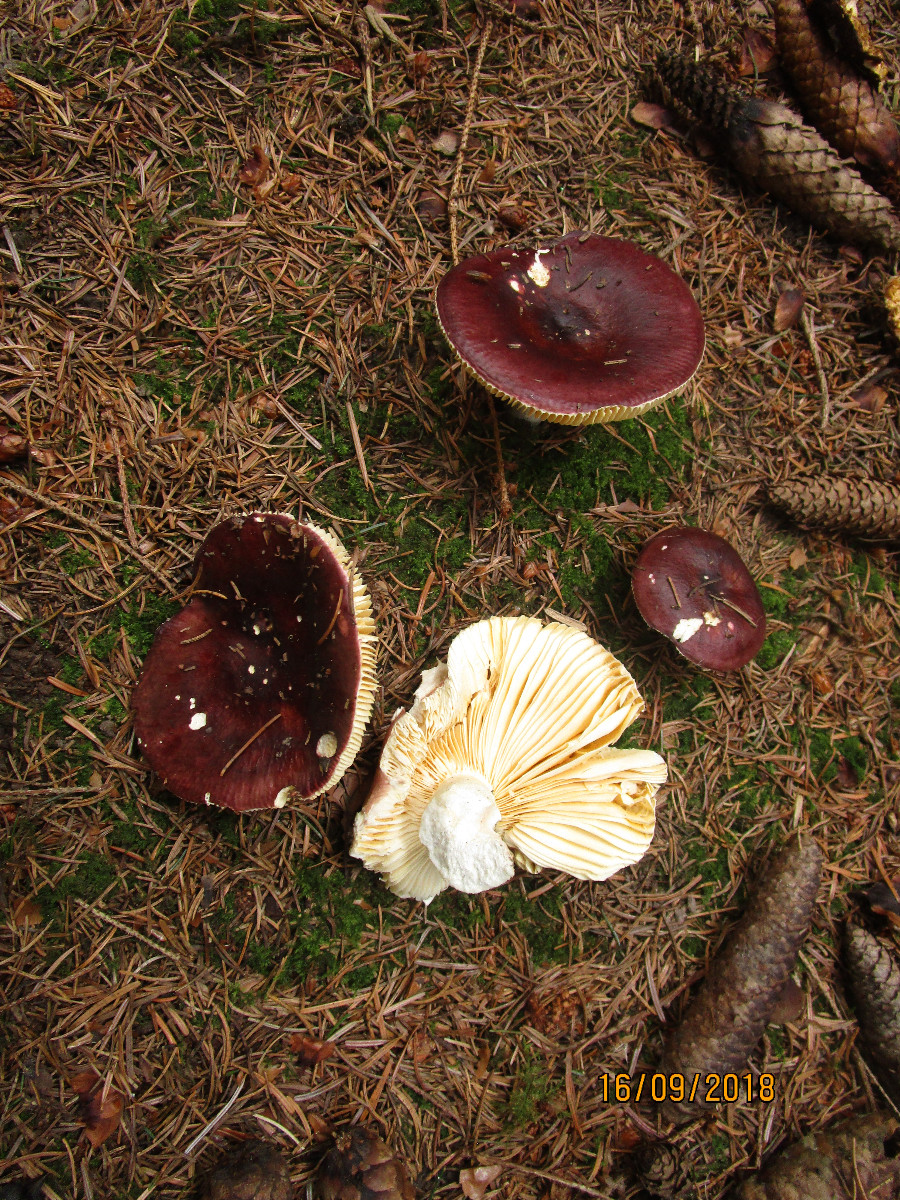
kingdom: Fungi
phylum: Basidiomycota
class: Agaricomycetes
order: Russulales
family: Russulaceae
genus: Russula
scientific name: Russula integra
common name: mandel-skørhat
